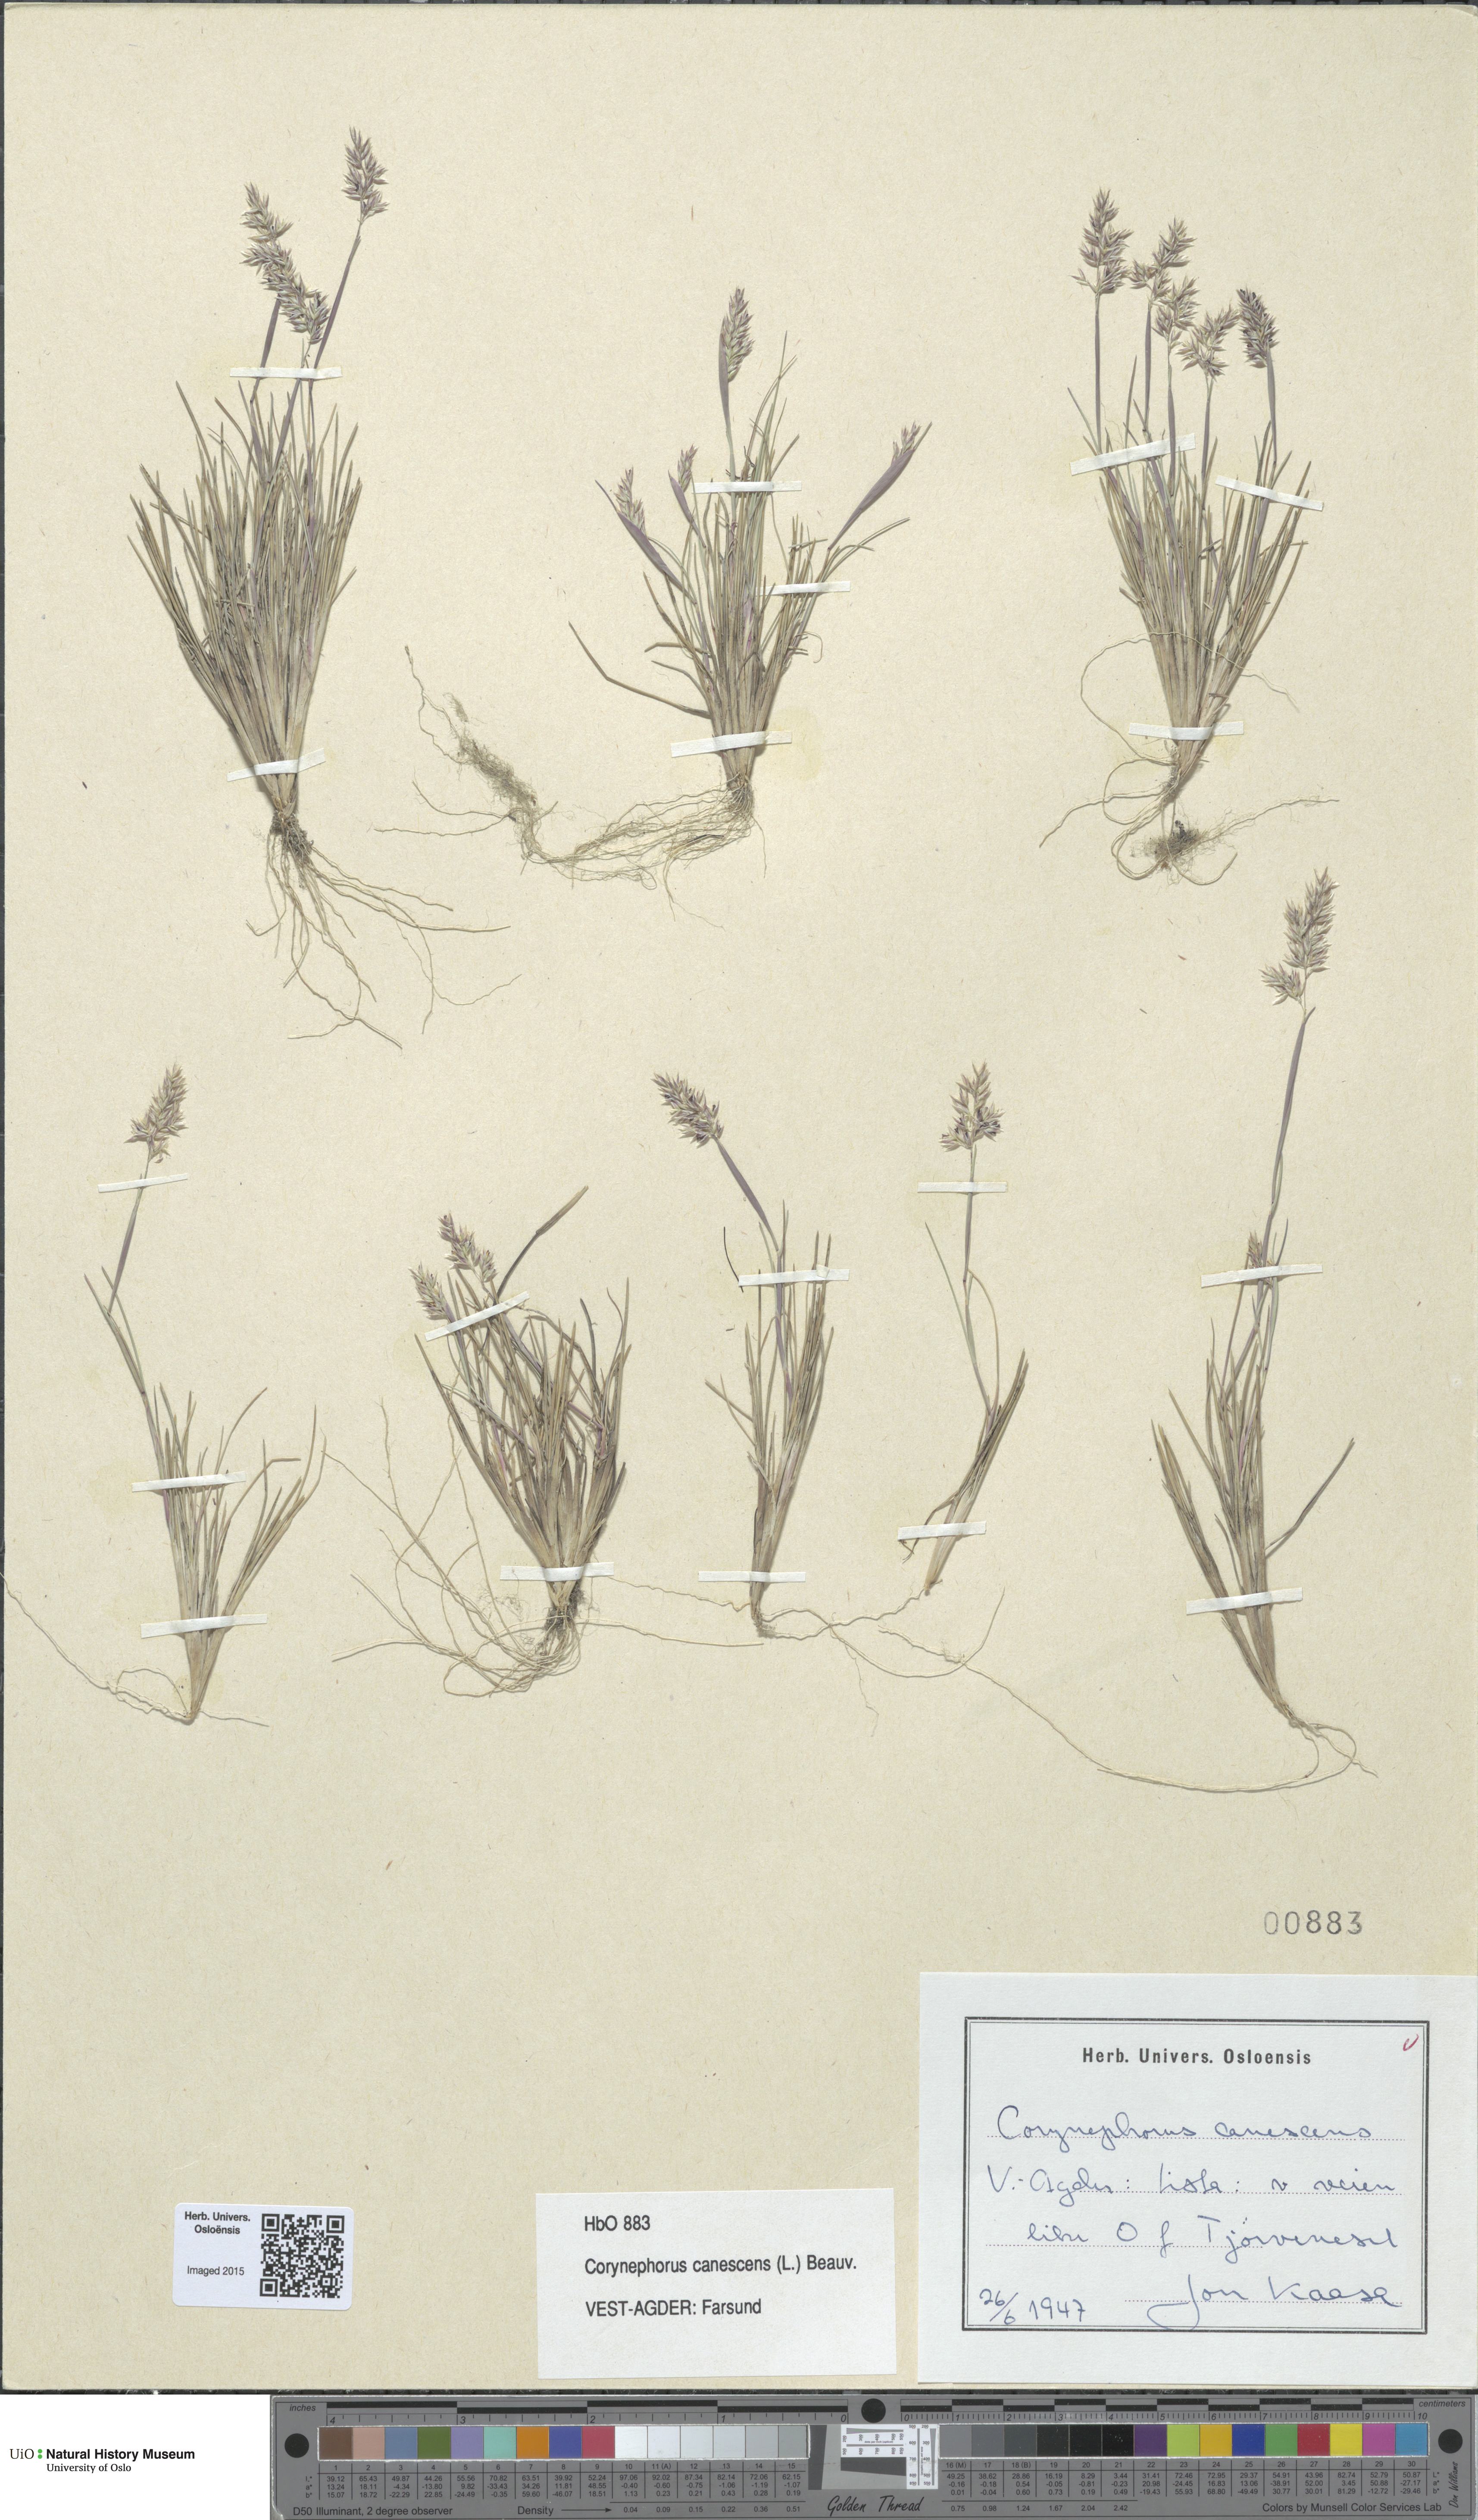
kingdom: Plantae
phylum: Tracheophyta
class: Liliopsida
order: Poales
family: Poaceae
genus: Corynephorus
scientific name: Corynephorus canescens
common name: Grey hair-grass
